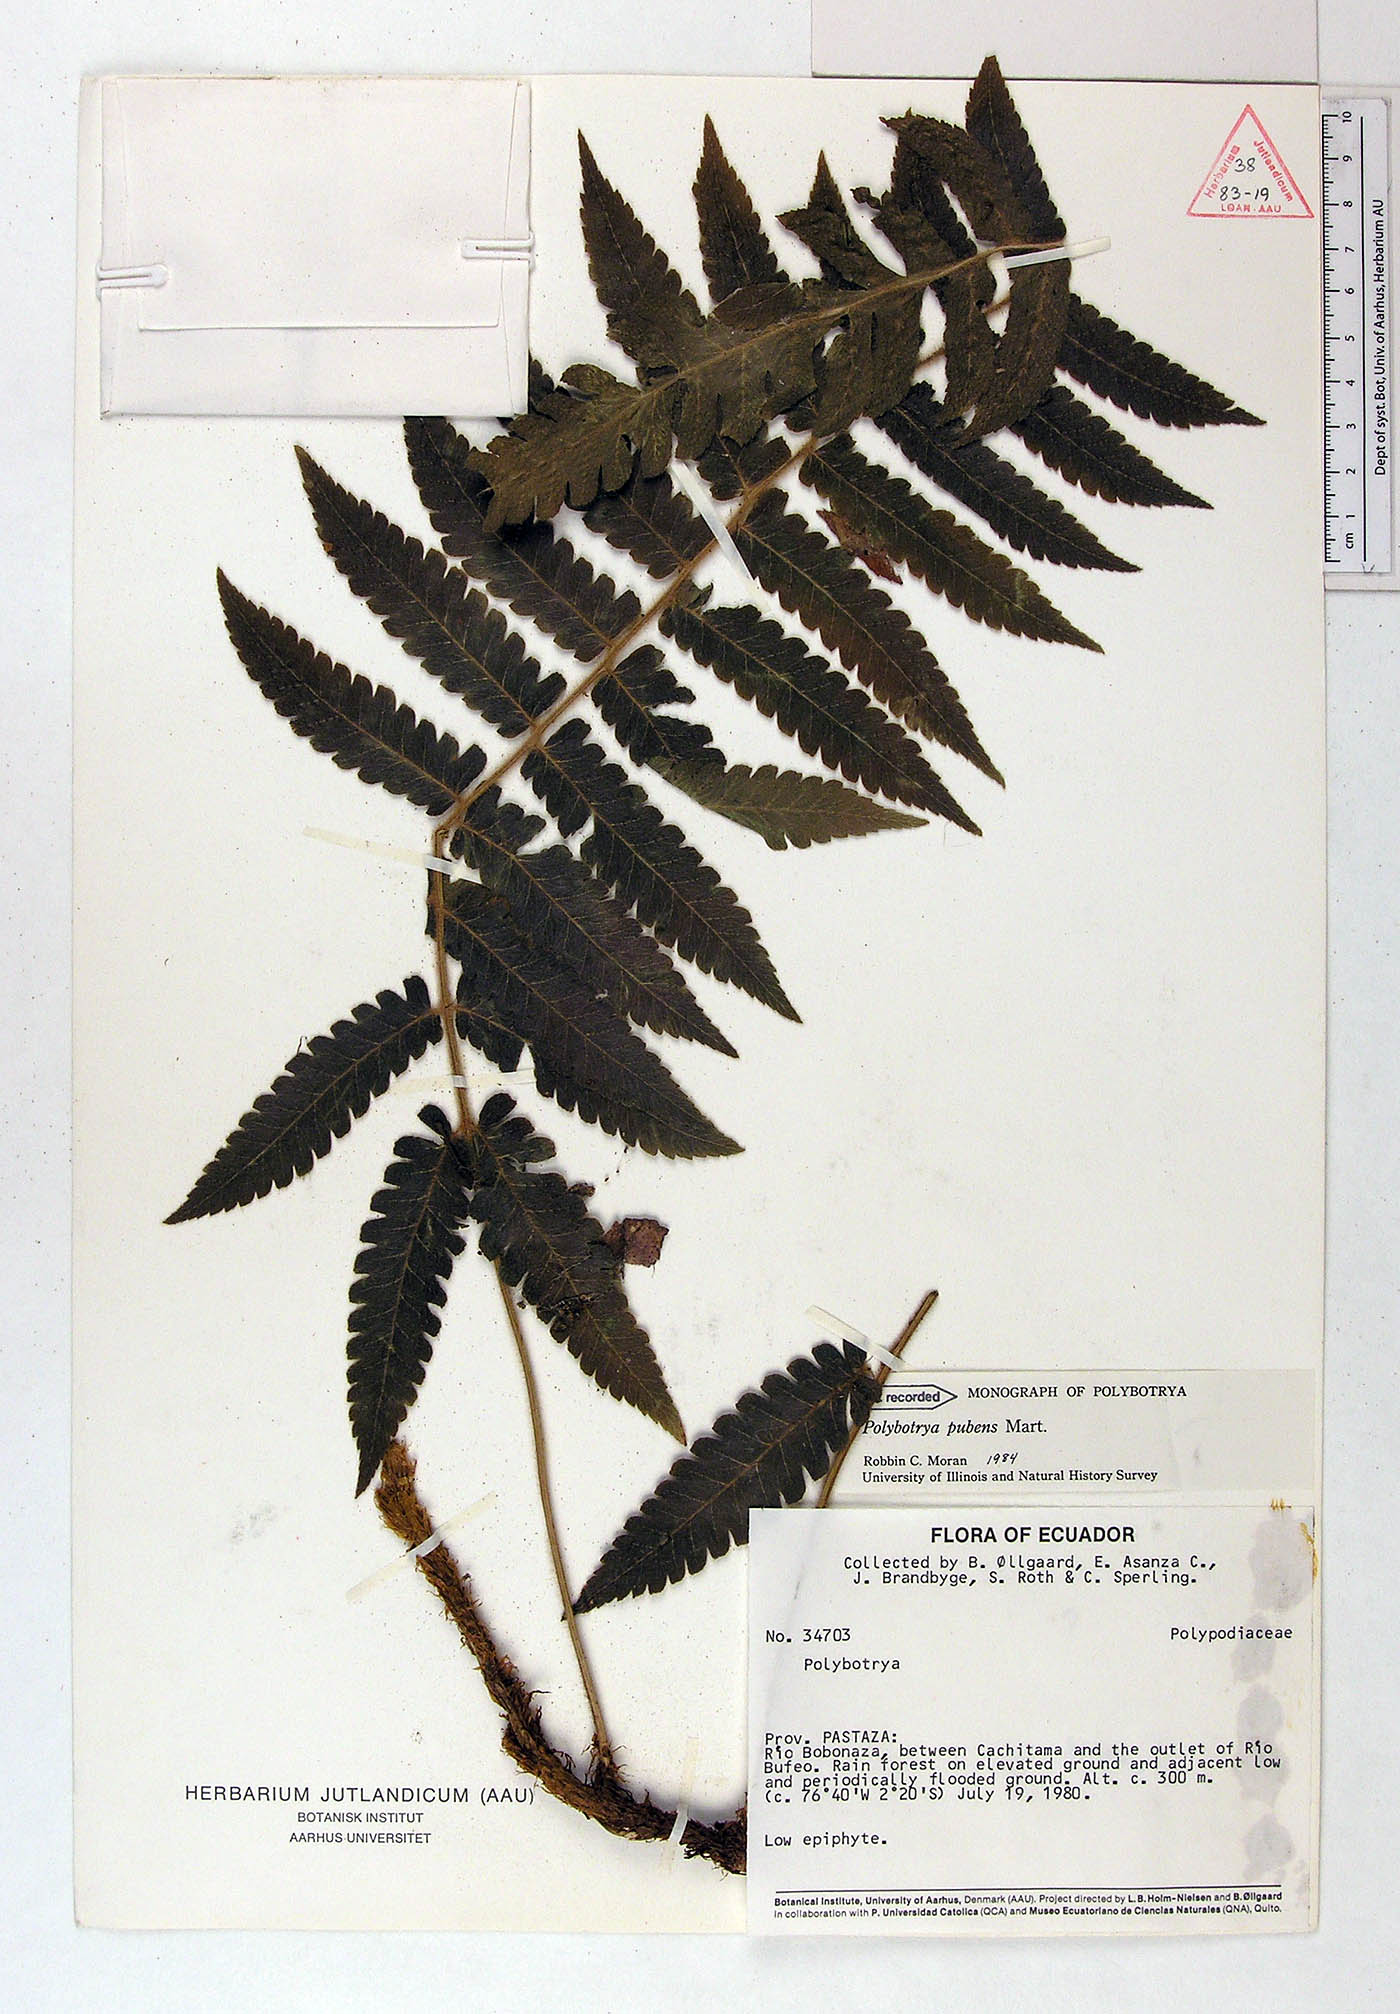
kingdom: Plantae
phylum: Tracheophyta
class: Polypodiopsida
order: Polypodiales
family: Dryopteridaceae
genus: Polybotrya
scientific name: Polybotrya pubens
